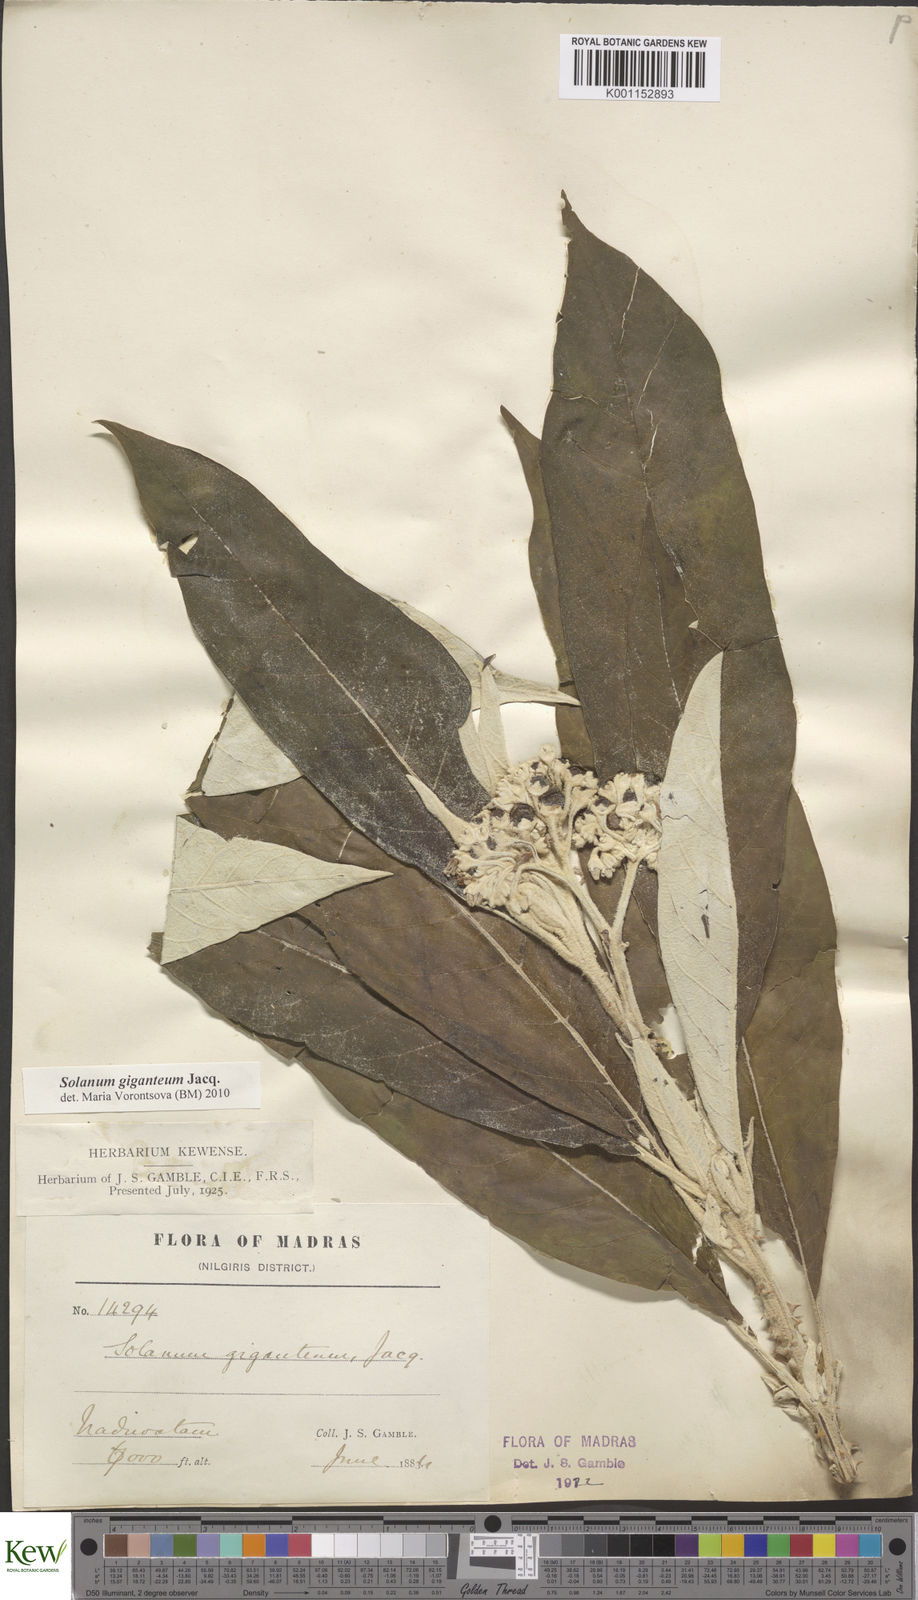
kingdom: Plantae
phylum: Tracheophyta
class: Magnoliopsida
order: Solanales
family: Solanaceae
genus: Solanum
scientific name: Solanum giganteum
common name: Healing-leaf-tree
